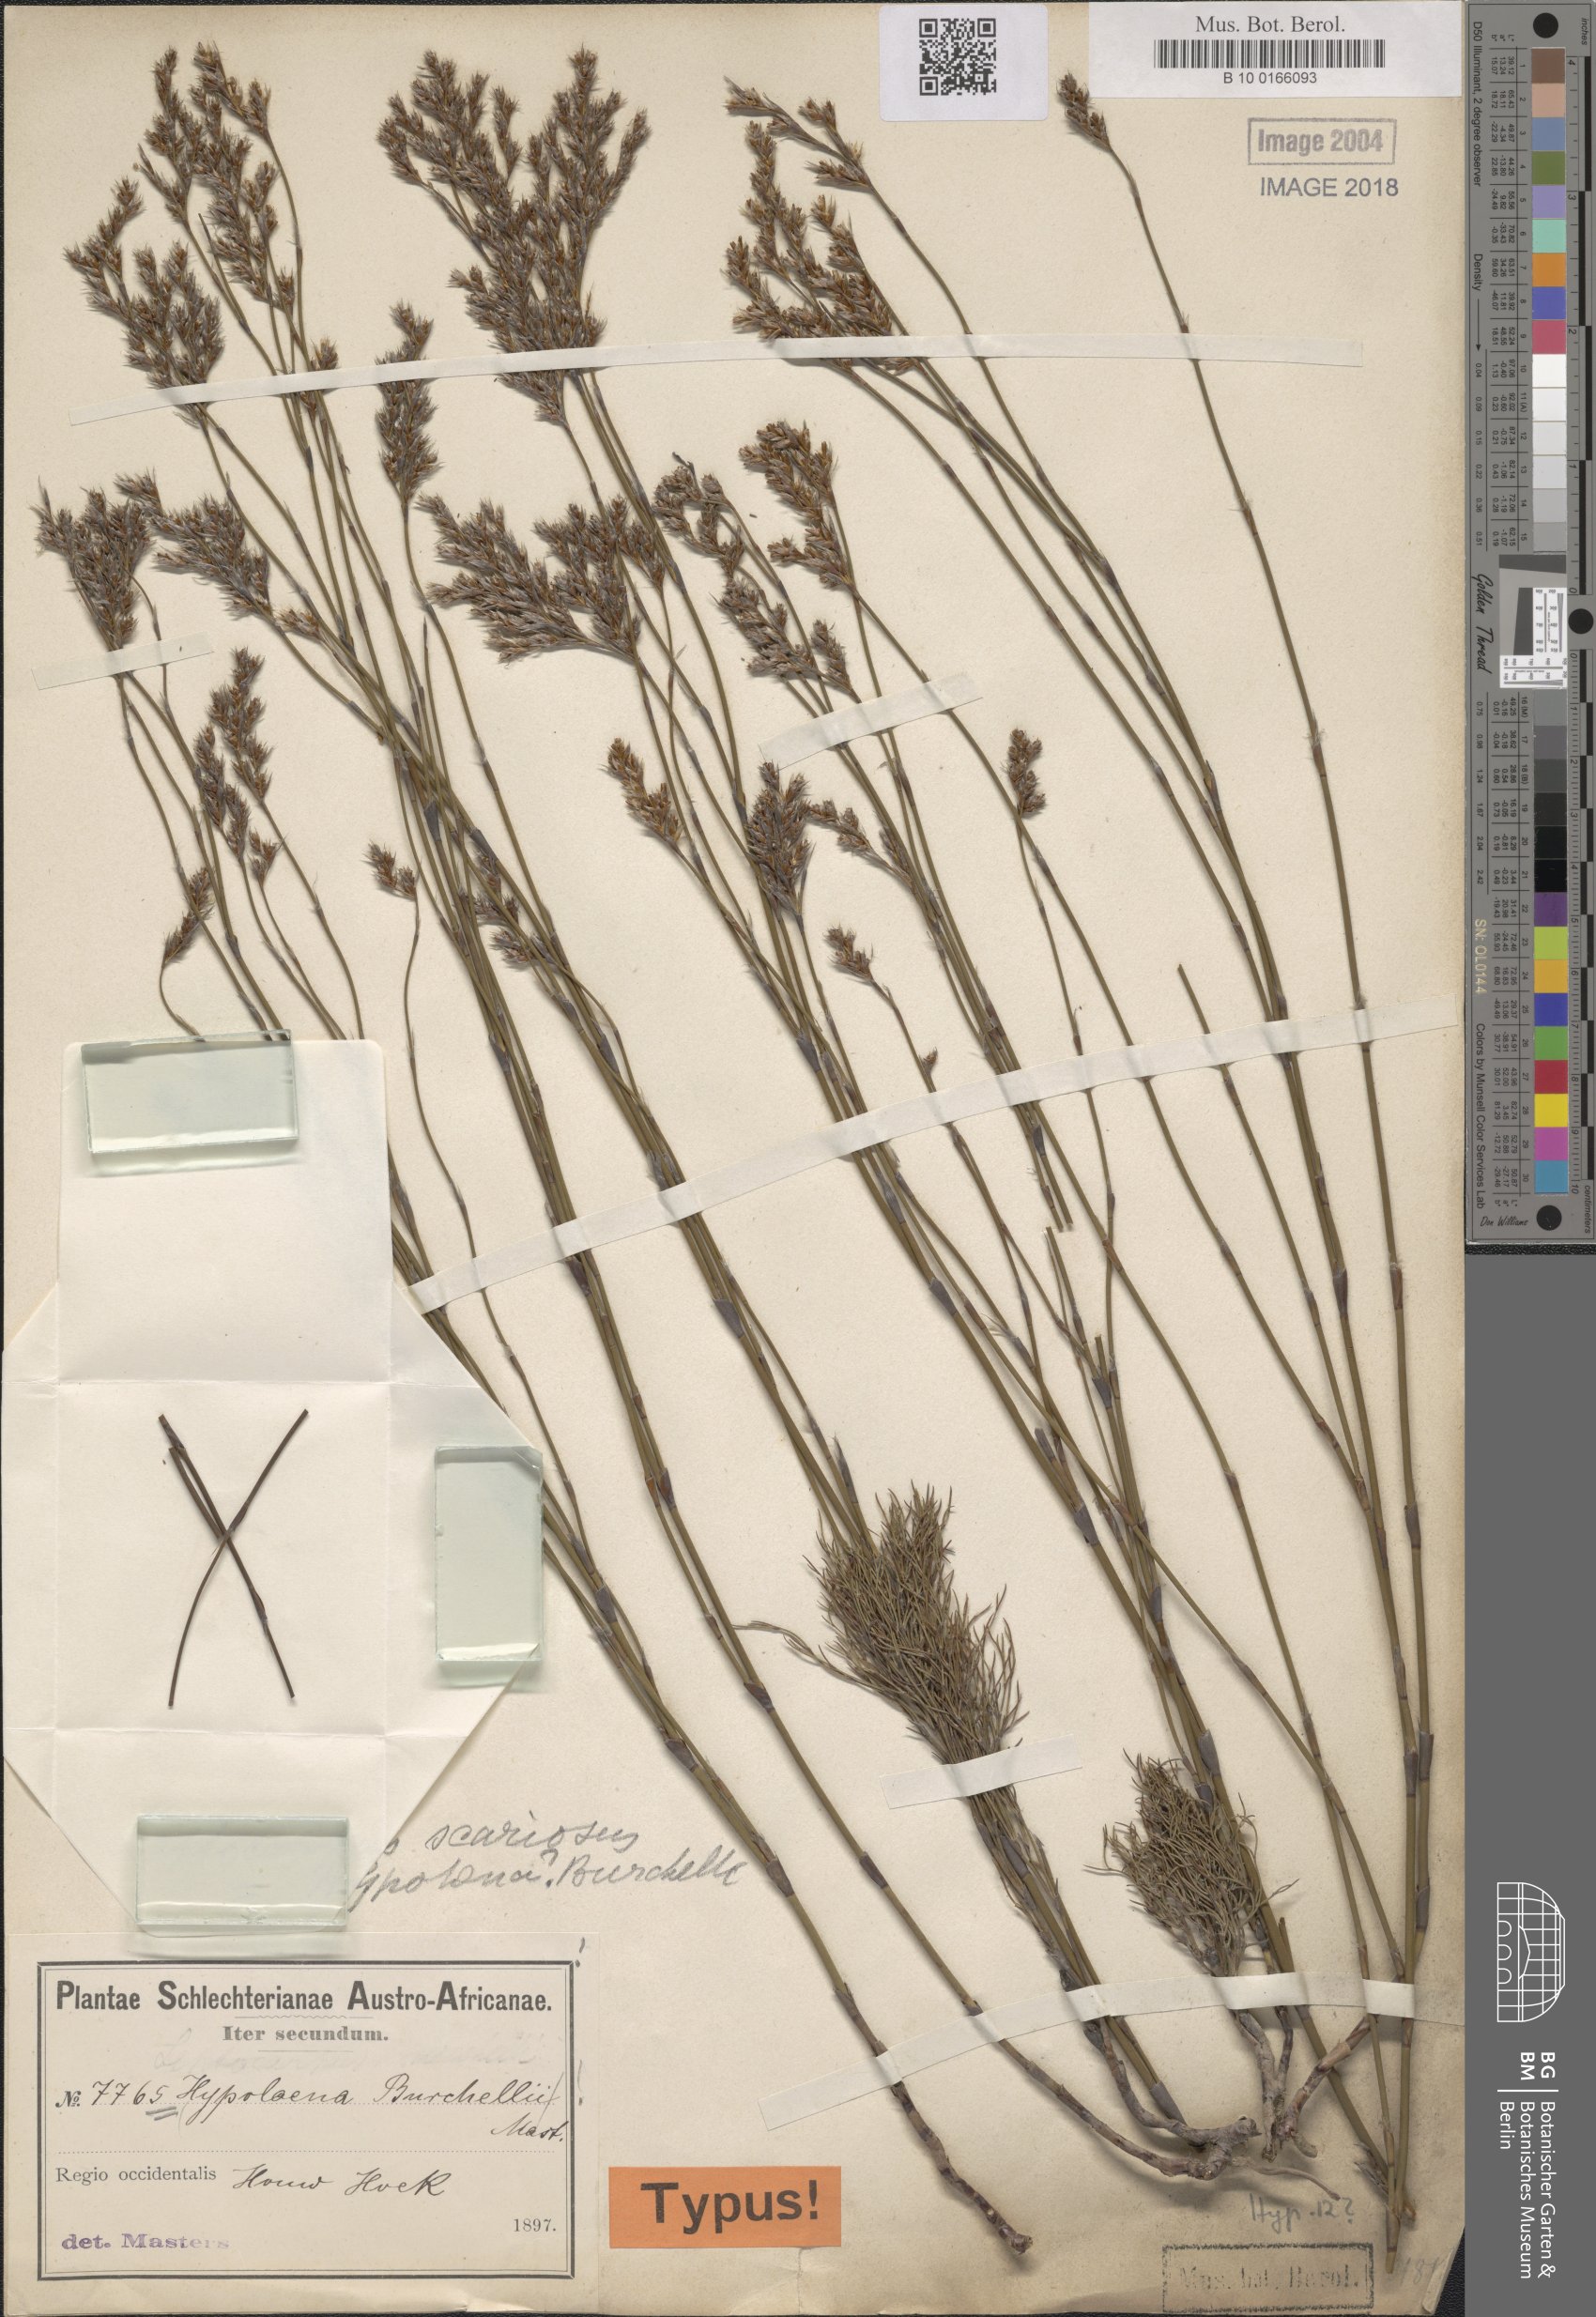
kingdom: Plantae
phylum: Tracheophyta
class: Liliopsida
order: Poales
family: Restionaceae
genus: Restio
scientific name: Restio parvispiculus
